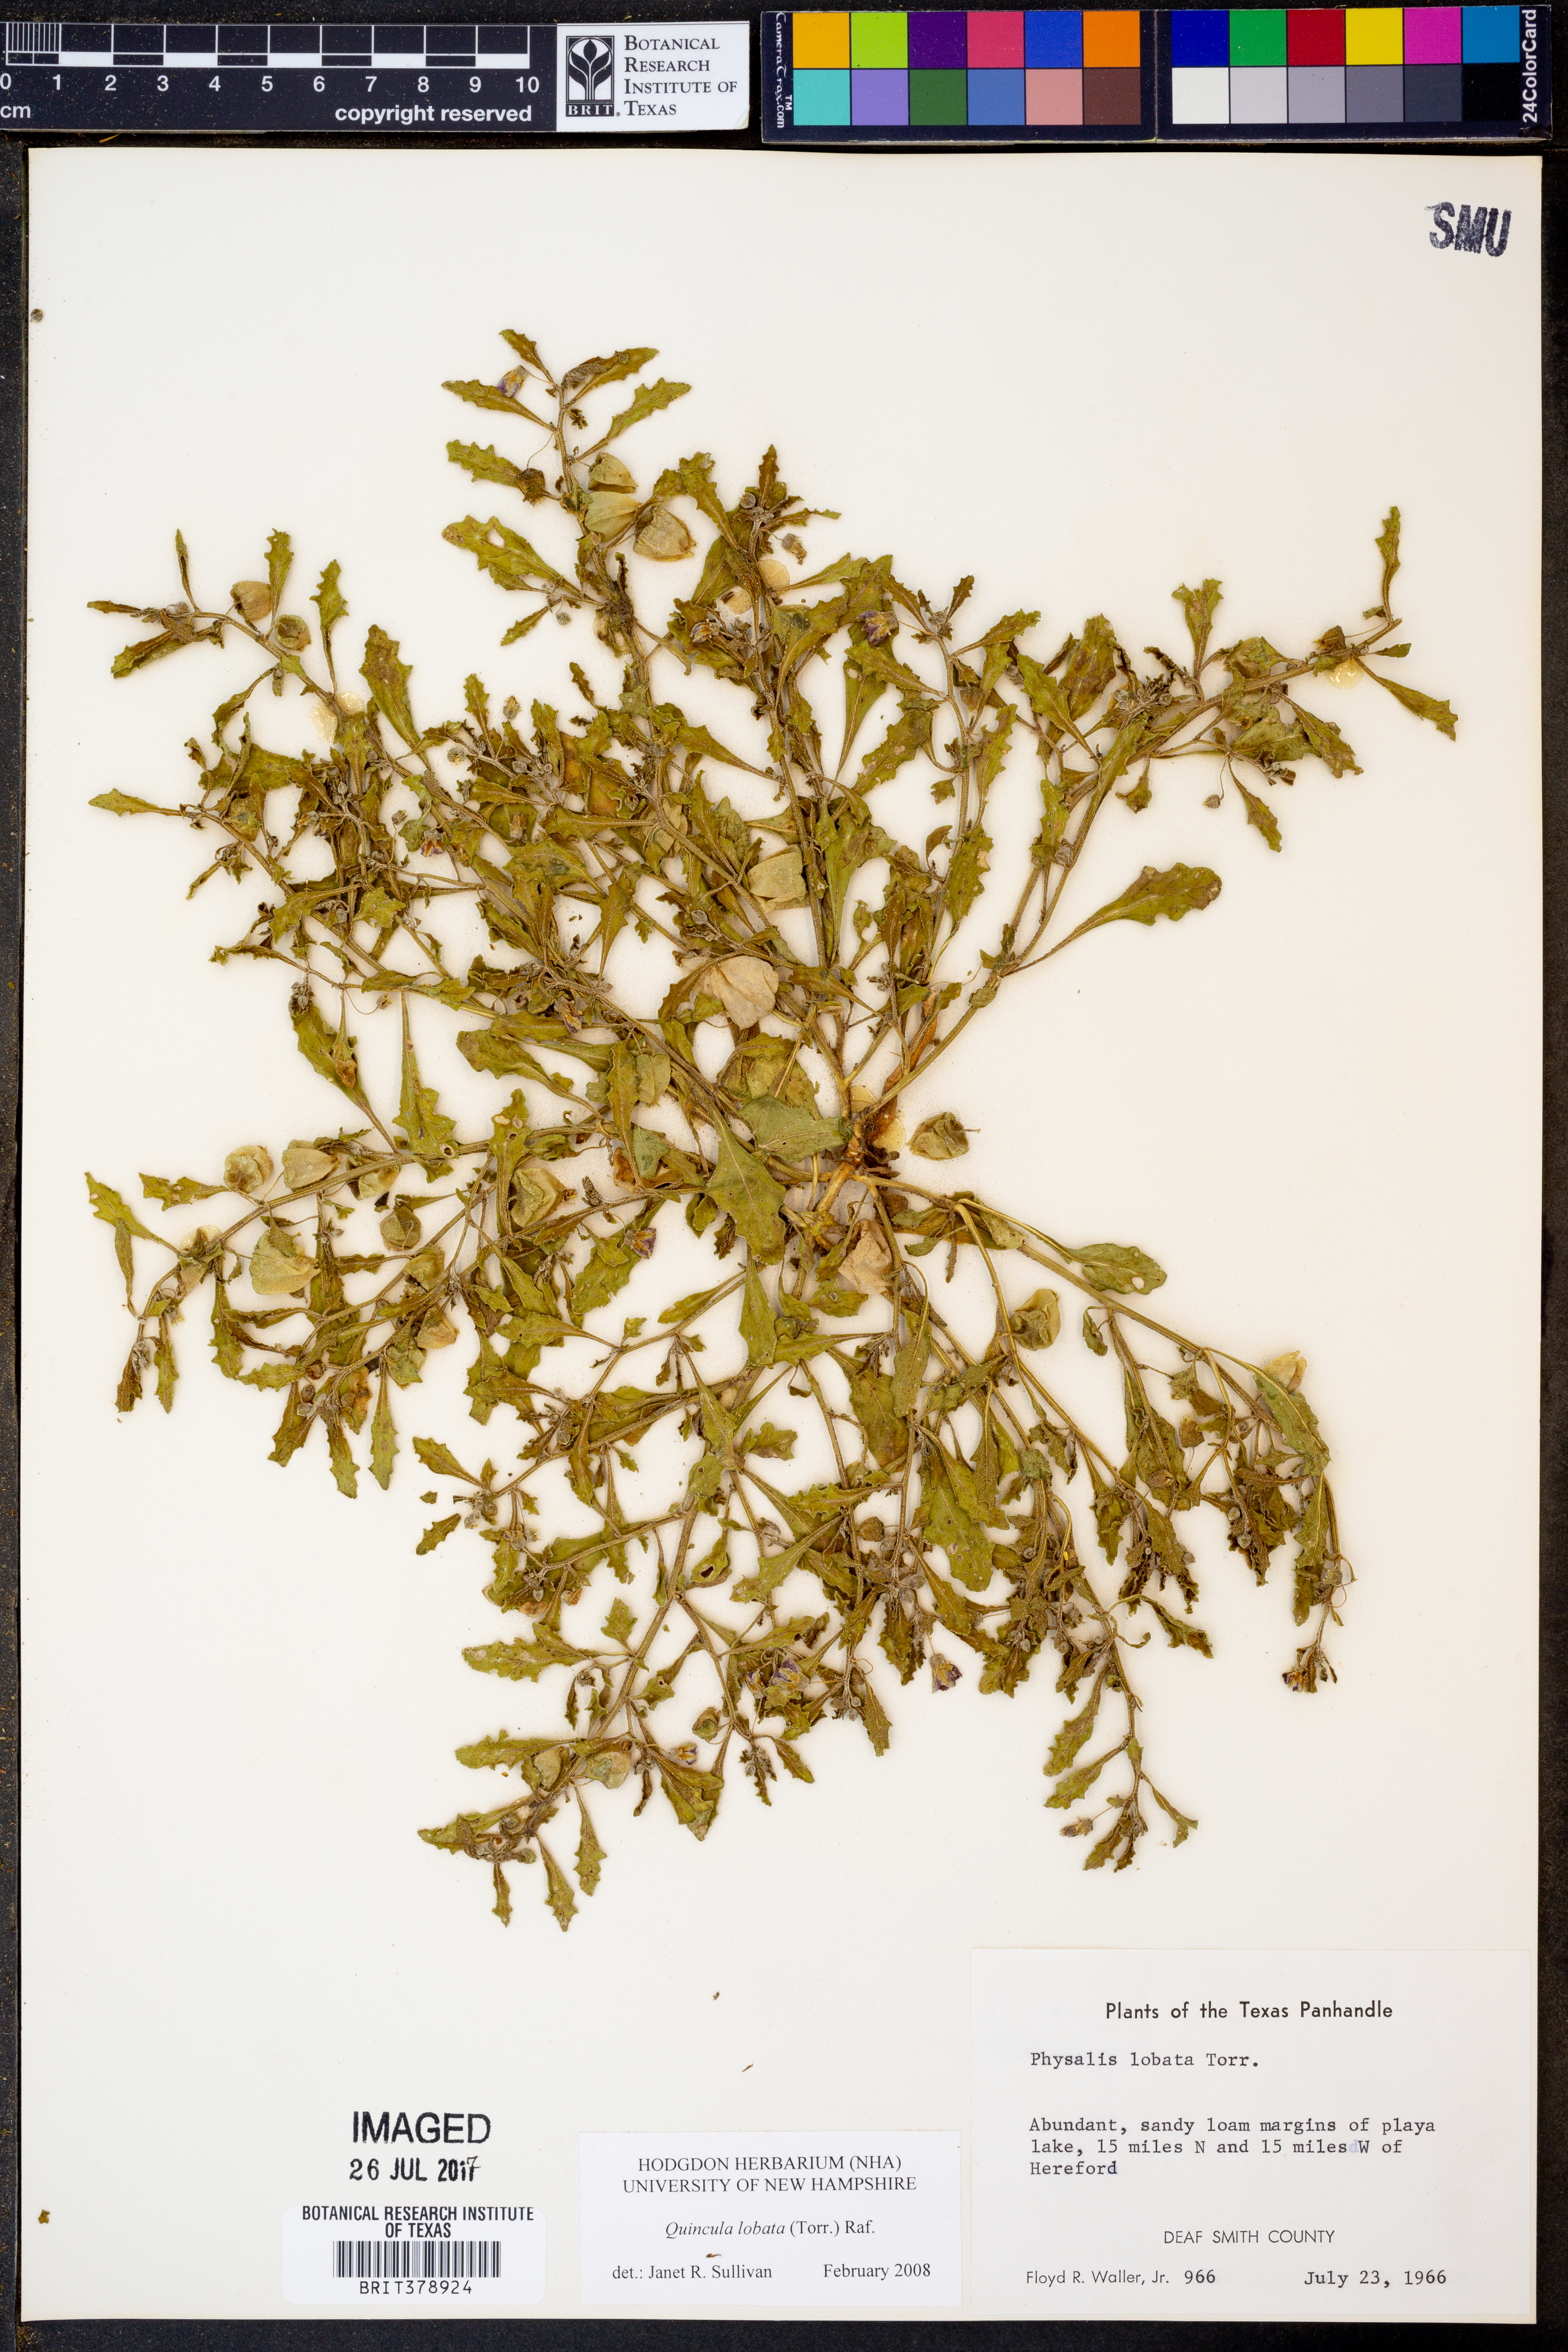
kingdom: Plantae
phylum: Tracheophyta
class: Magnoliopsida
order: Solanales
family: Solanaceae
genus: Quincula
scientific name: Quincula lobata
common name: Purple-ground-cherry
